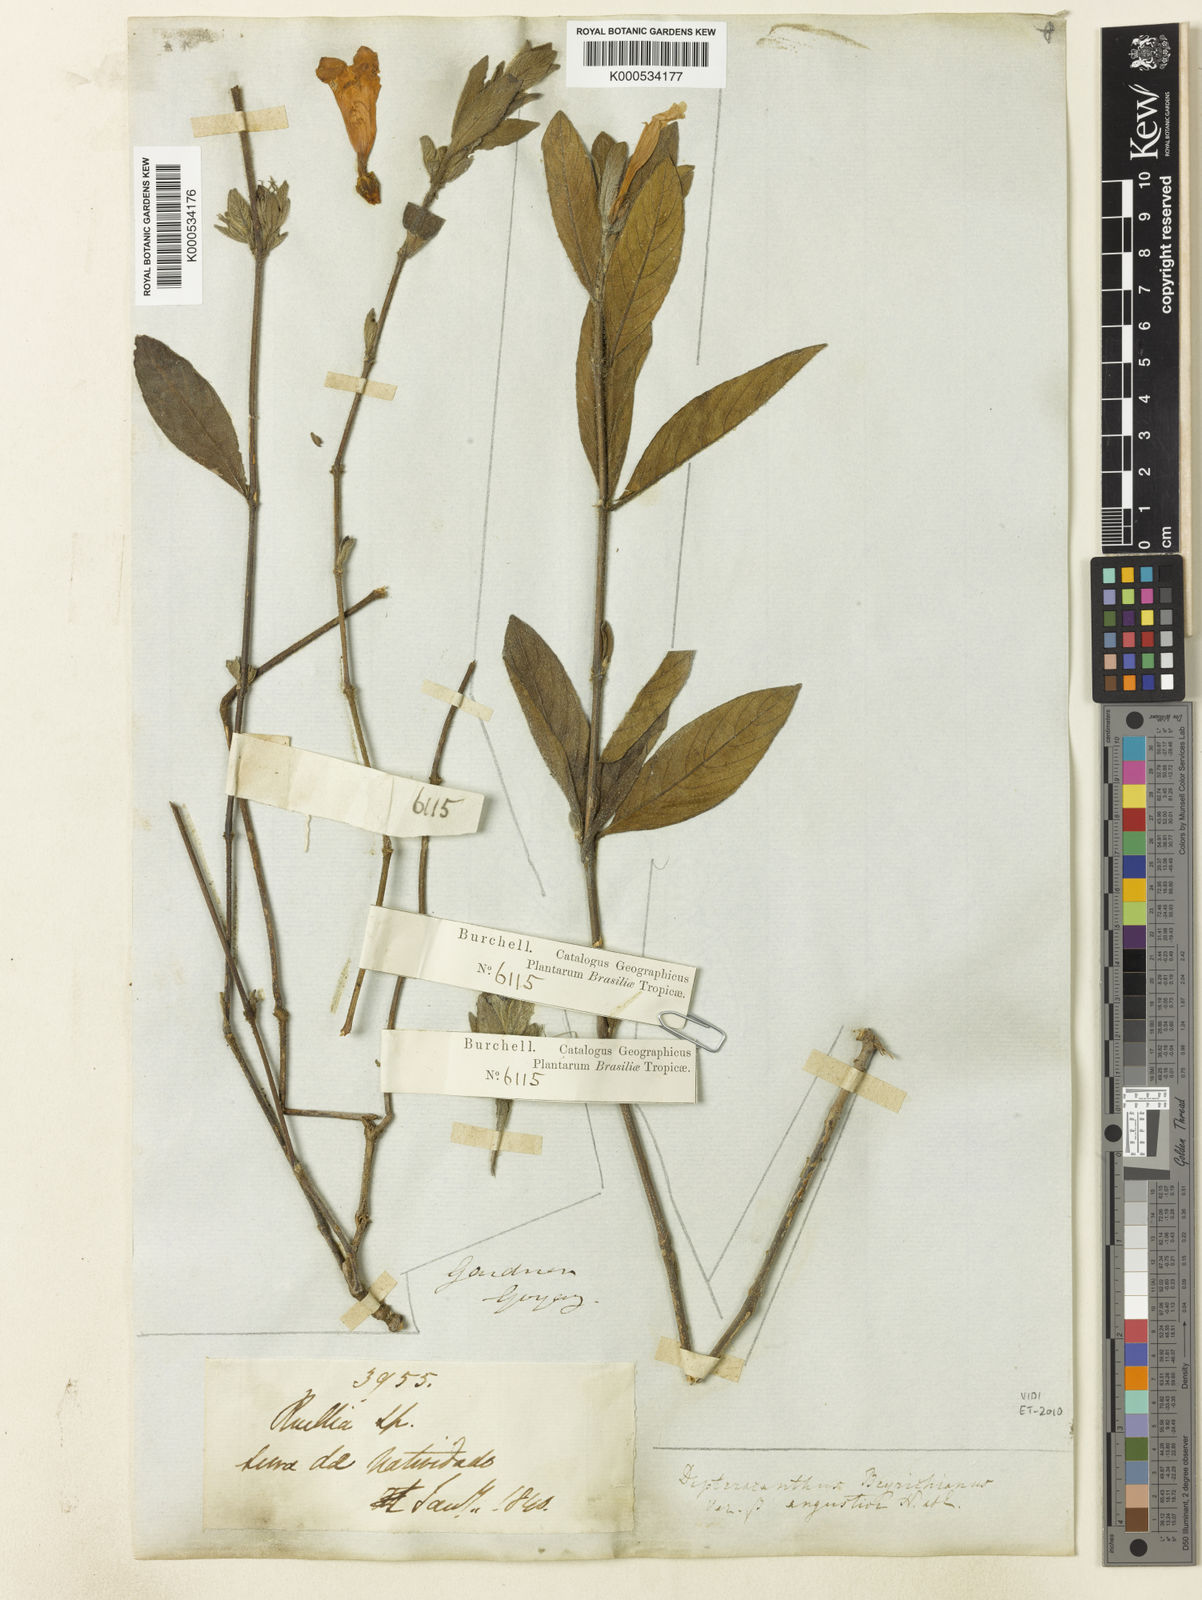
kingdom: Plantae
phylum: Tracheophyta
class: Magnoliopsida
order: Lamiales
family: Acanthaceae
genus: Ruellia
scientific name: Ruellia beyrichiana
